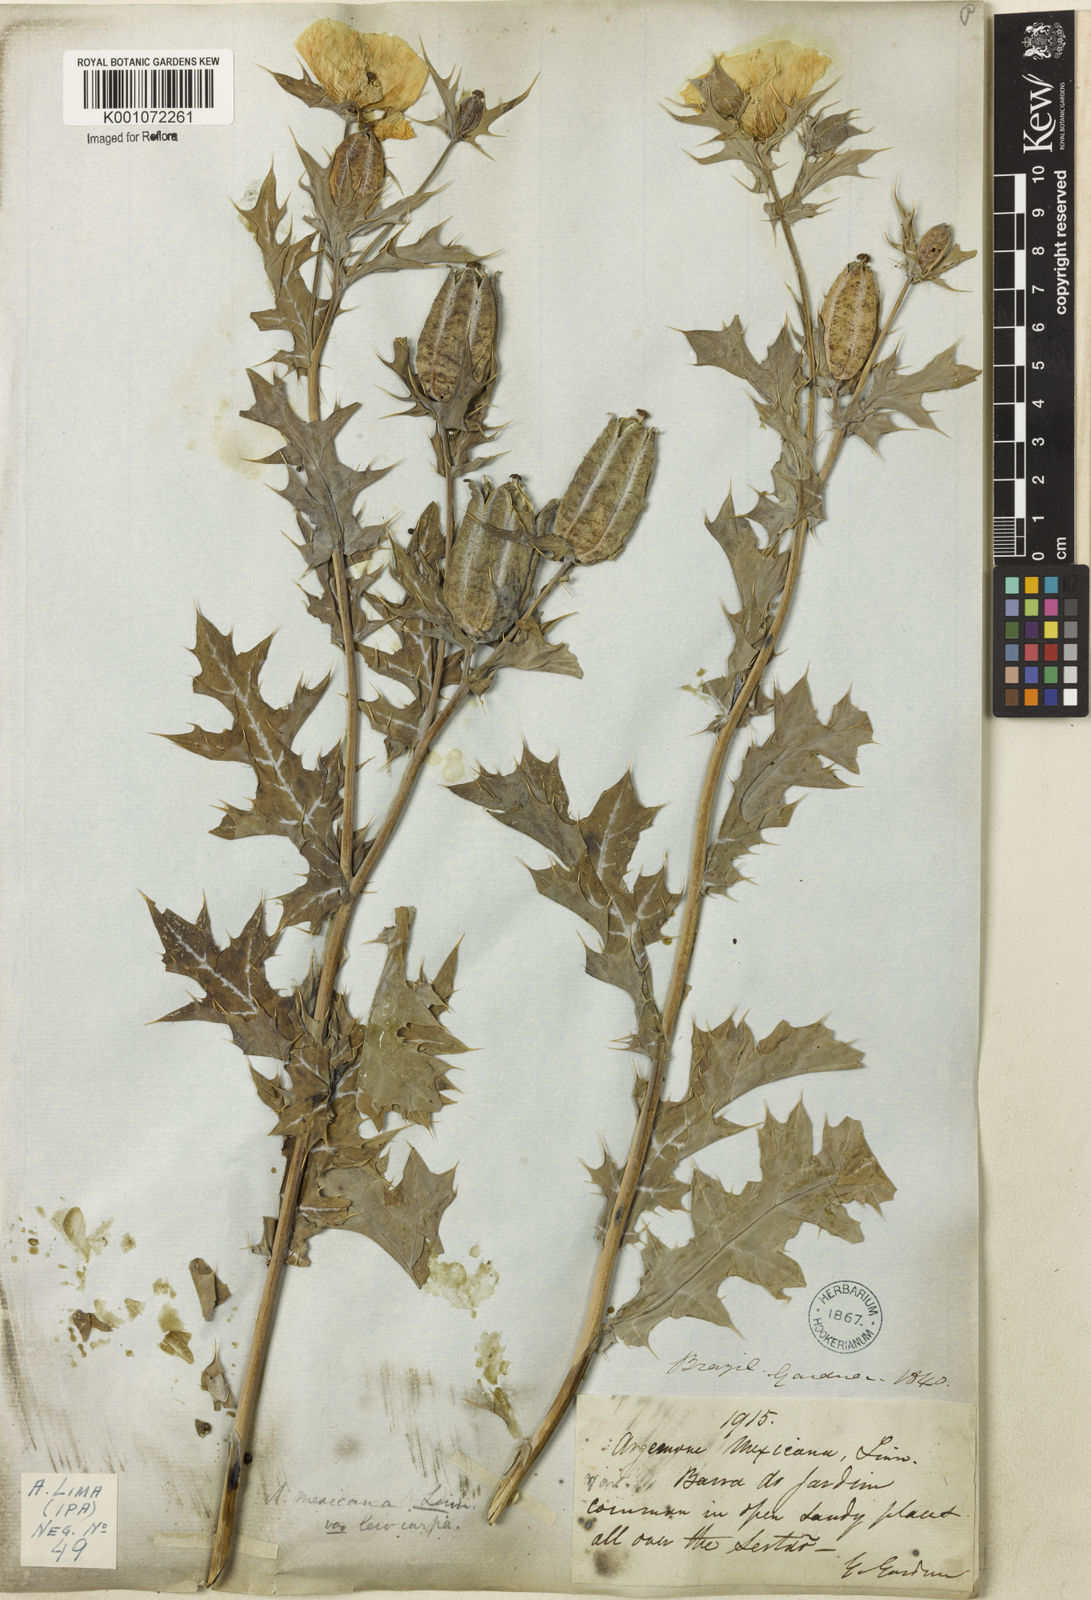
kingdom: Plantae
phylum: Tracheophyta
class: Magnoliopsida
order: Ranunculales
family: Papaveraceae
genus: Argemone
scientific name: Argemone mexicana
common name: Mexican poppy
